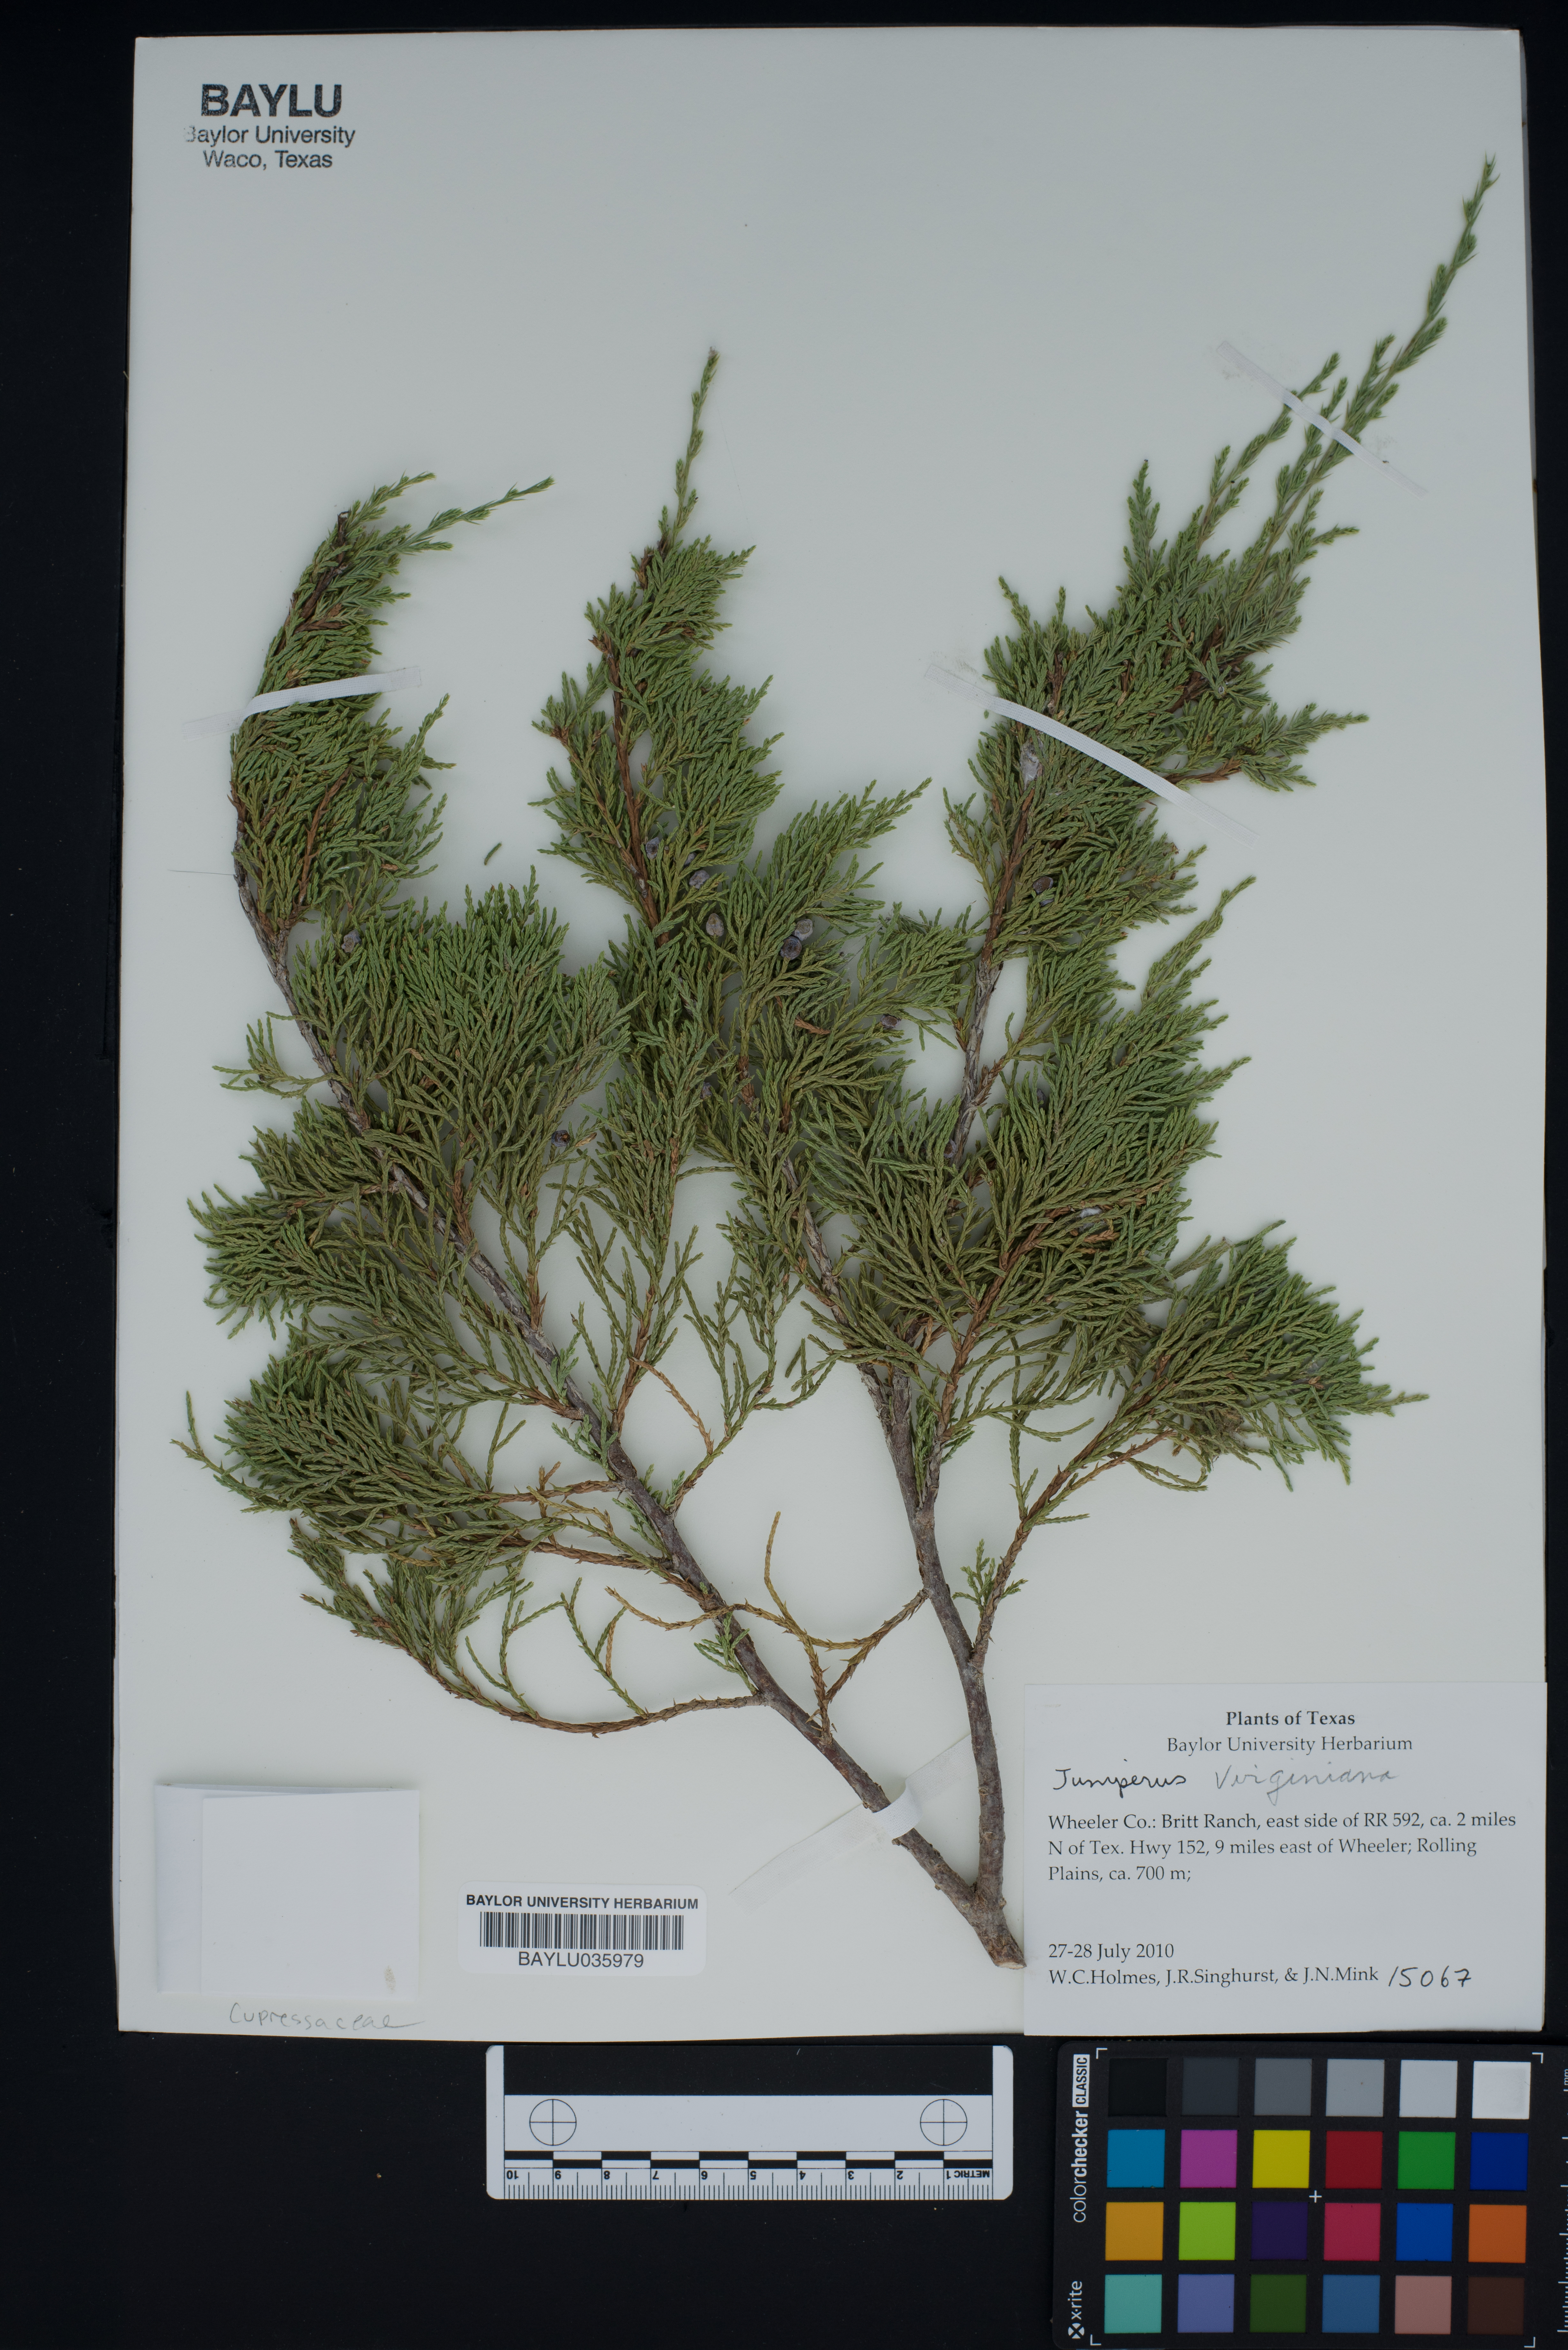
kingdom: Plantae
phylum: Tracheophyta
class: Pinopsida
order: Pinales
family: Cupressaceae
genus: Juniperus
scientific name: Juniperus virginiana
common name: Red juniper
